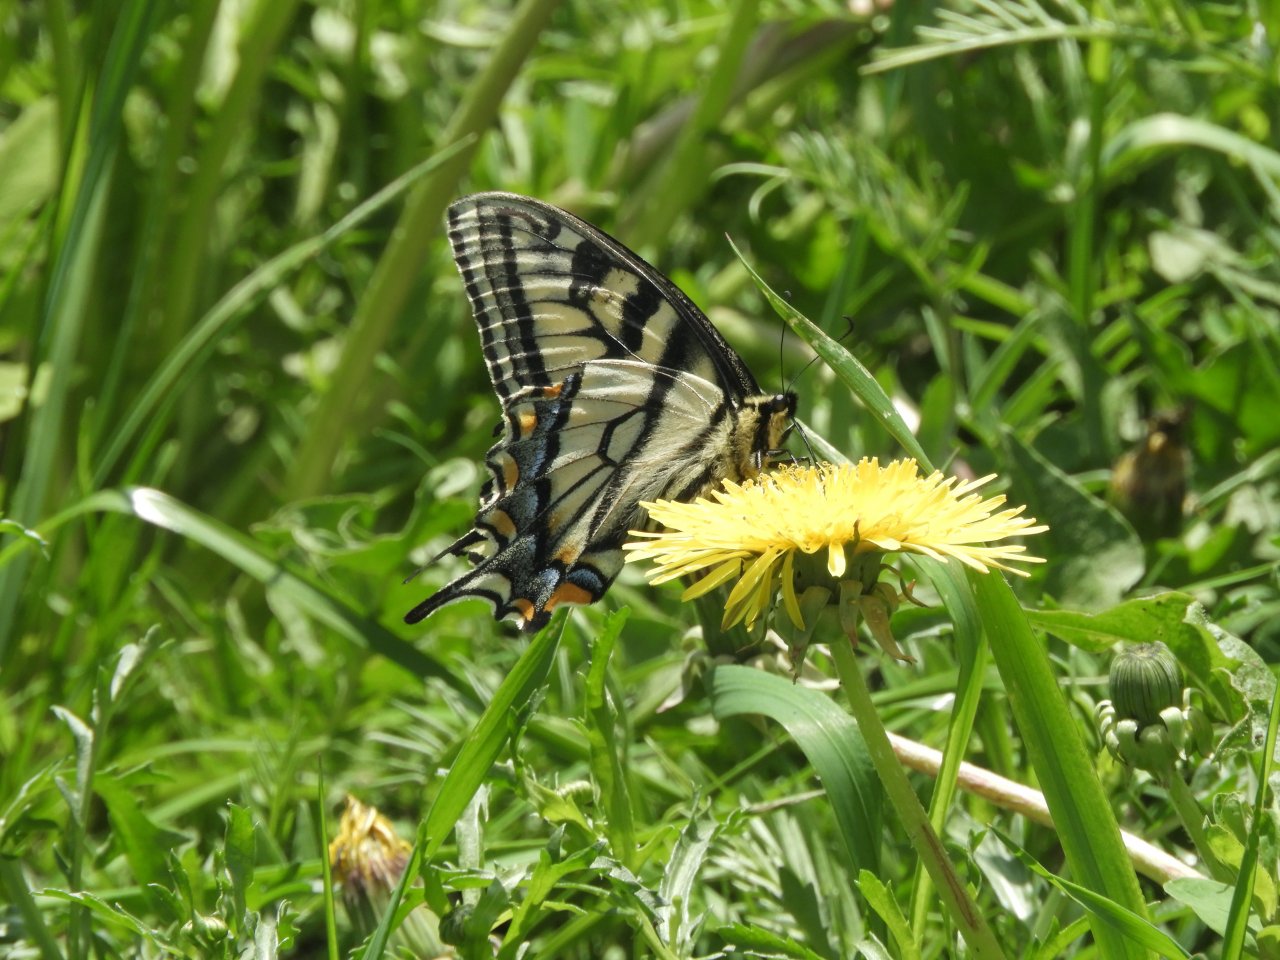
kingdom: Animalia
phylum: Arthropoda
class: Insecta
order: Lepidoptera
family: Papilionidae
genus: Pterourus
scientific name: Pterourus glaucus
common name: Eastern Tiger Swallowtail
